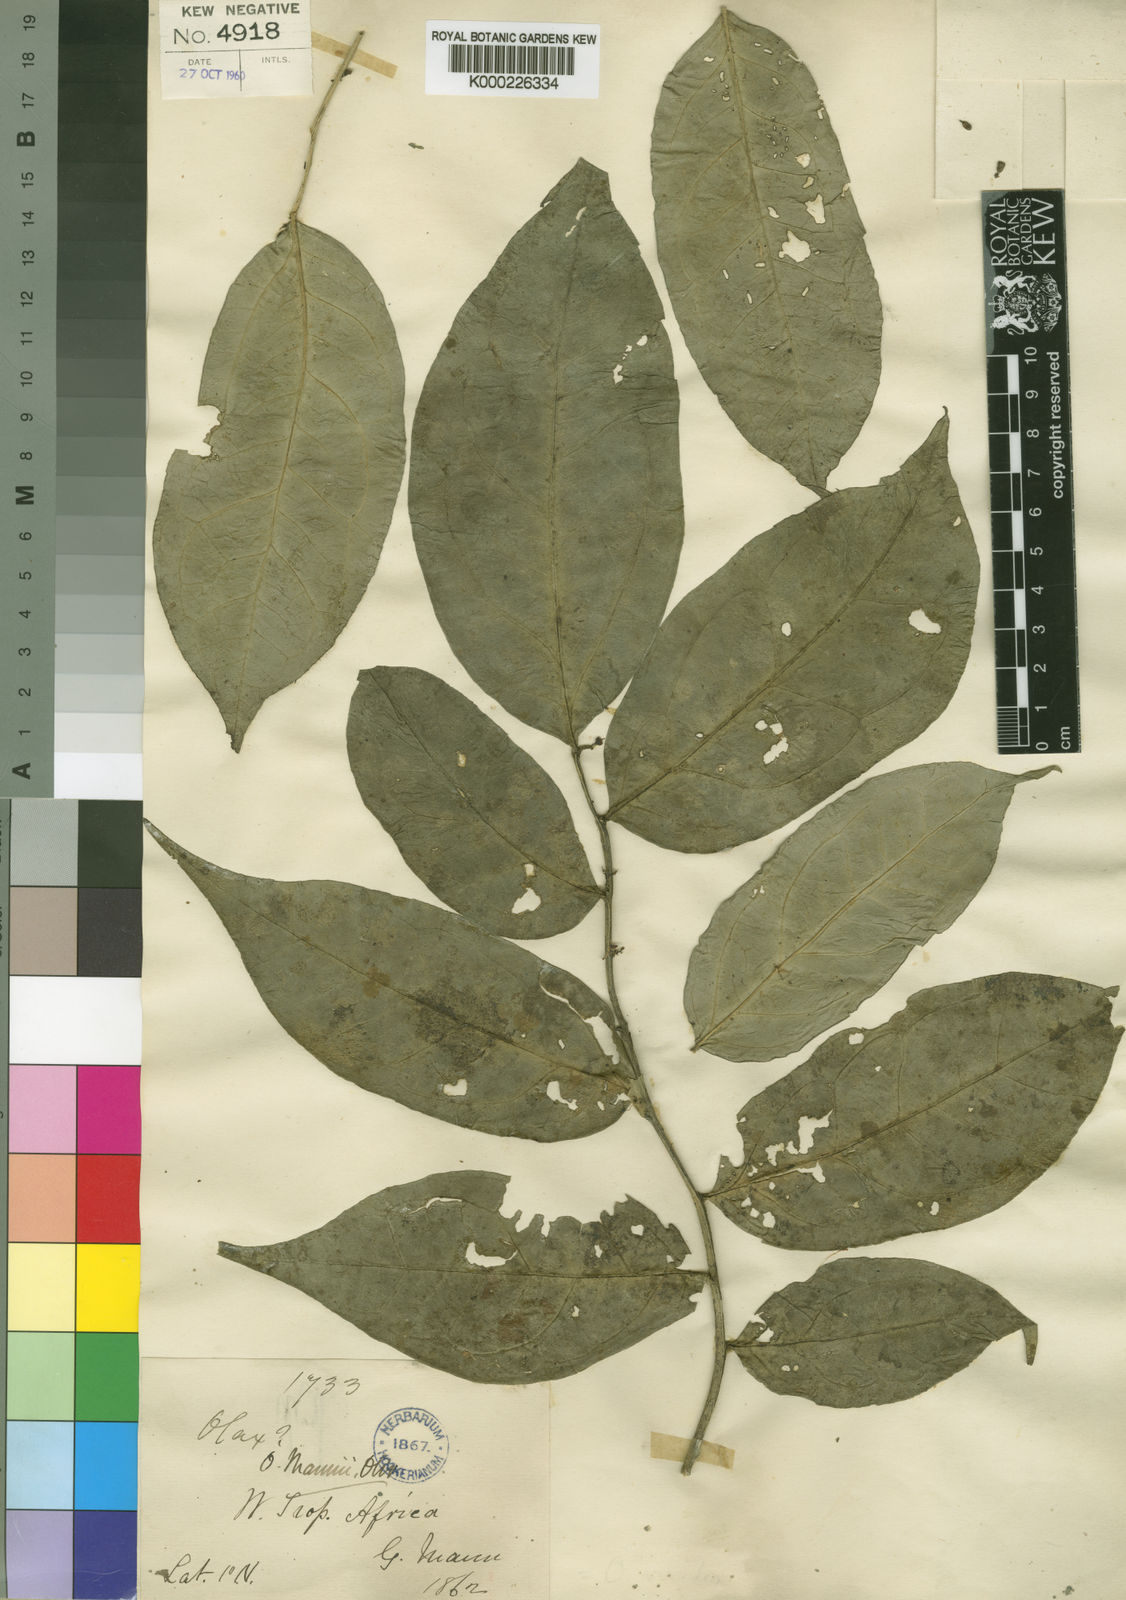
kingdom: Plantae
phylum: Tracheophyta
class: Magnoliopsida
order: Santalales
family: Olacaceae
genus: Olax
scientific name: Olax latifolia
